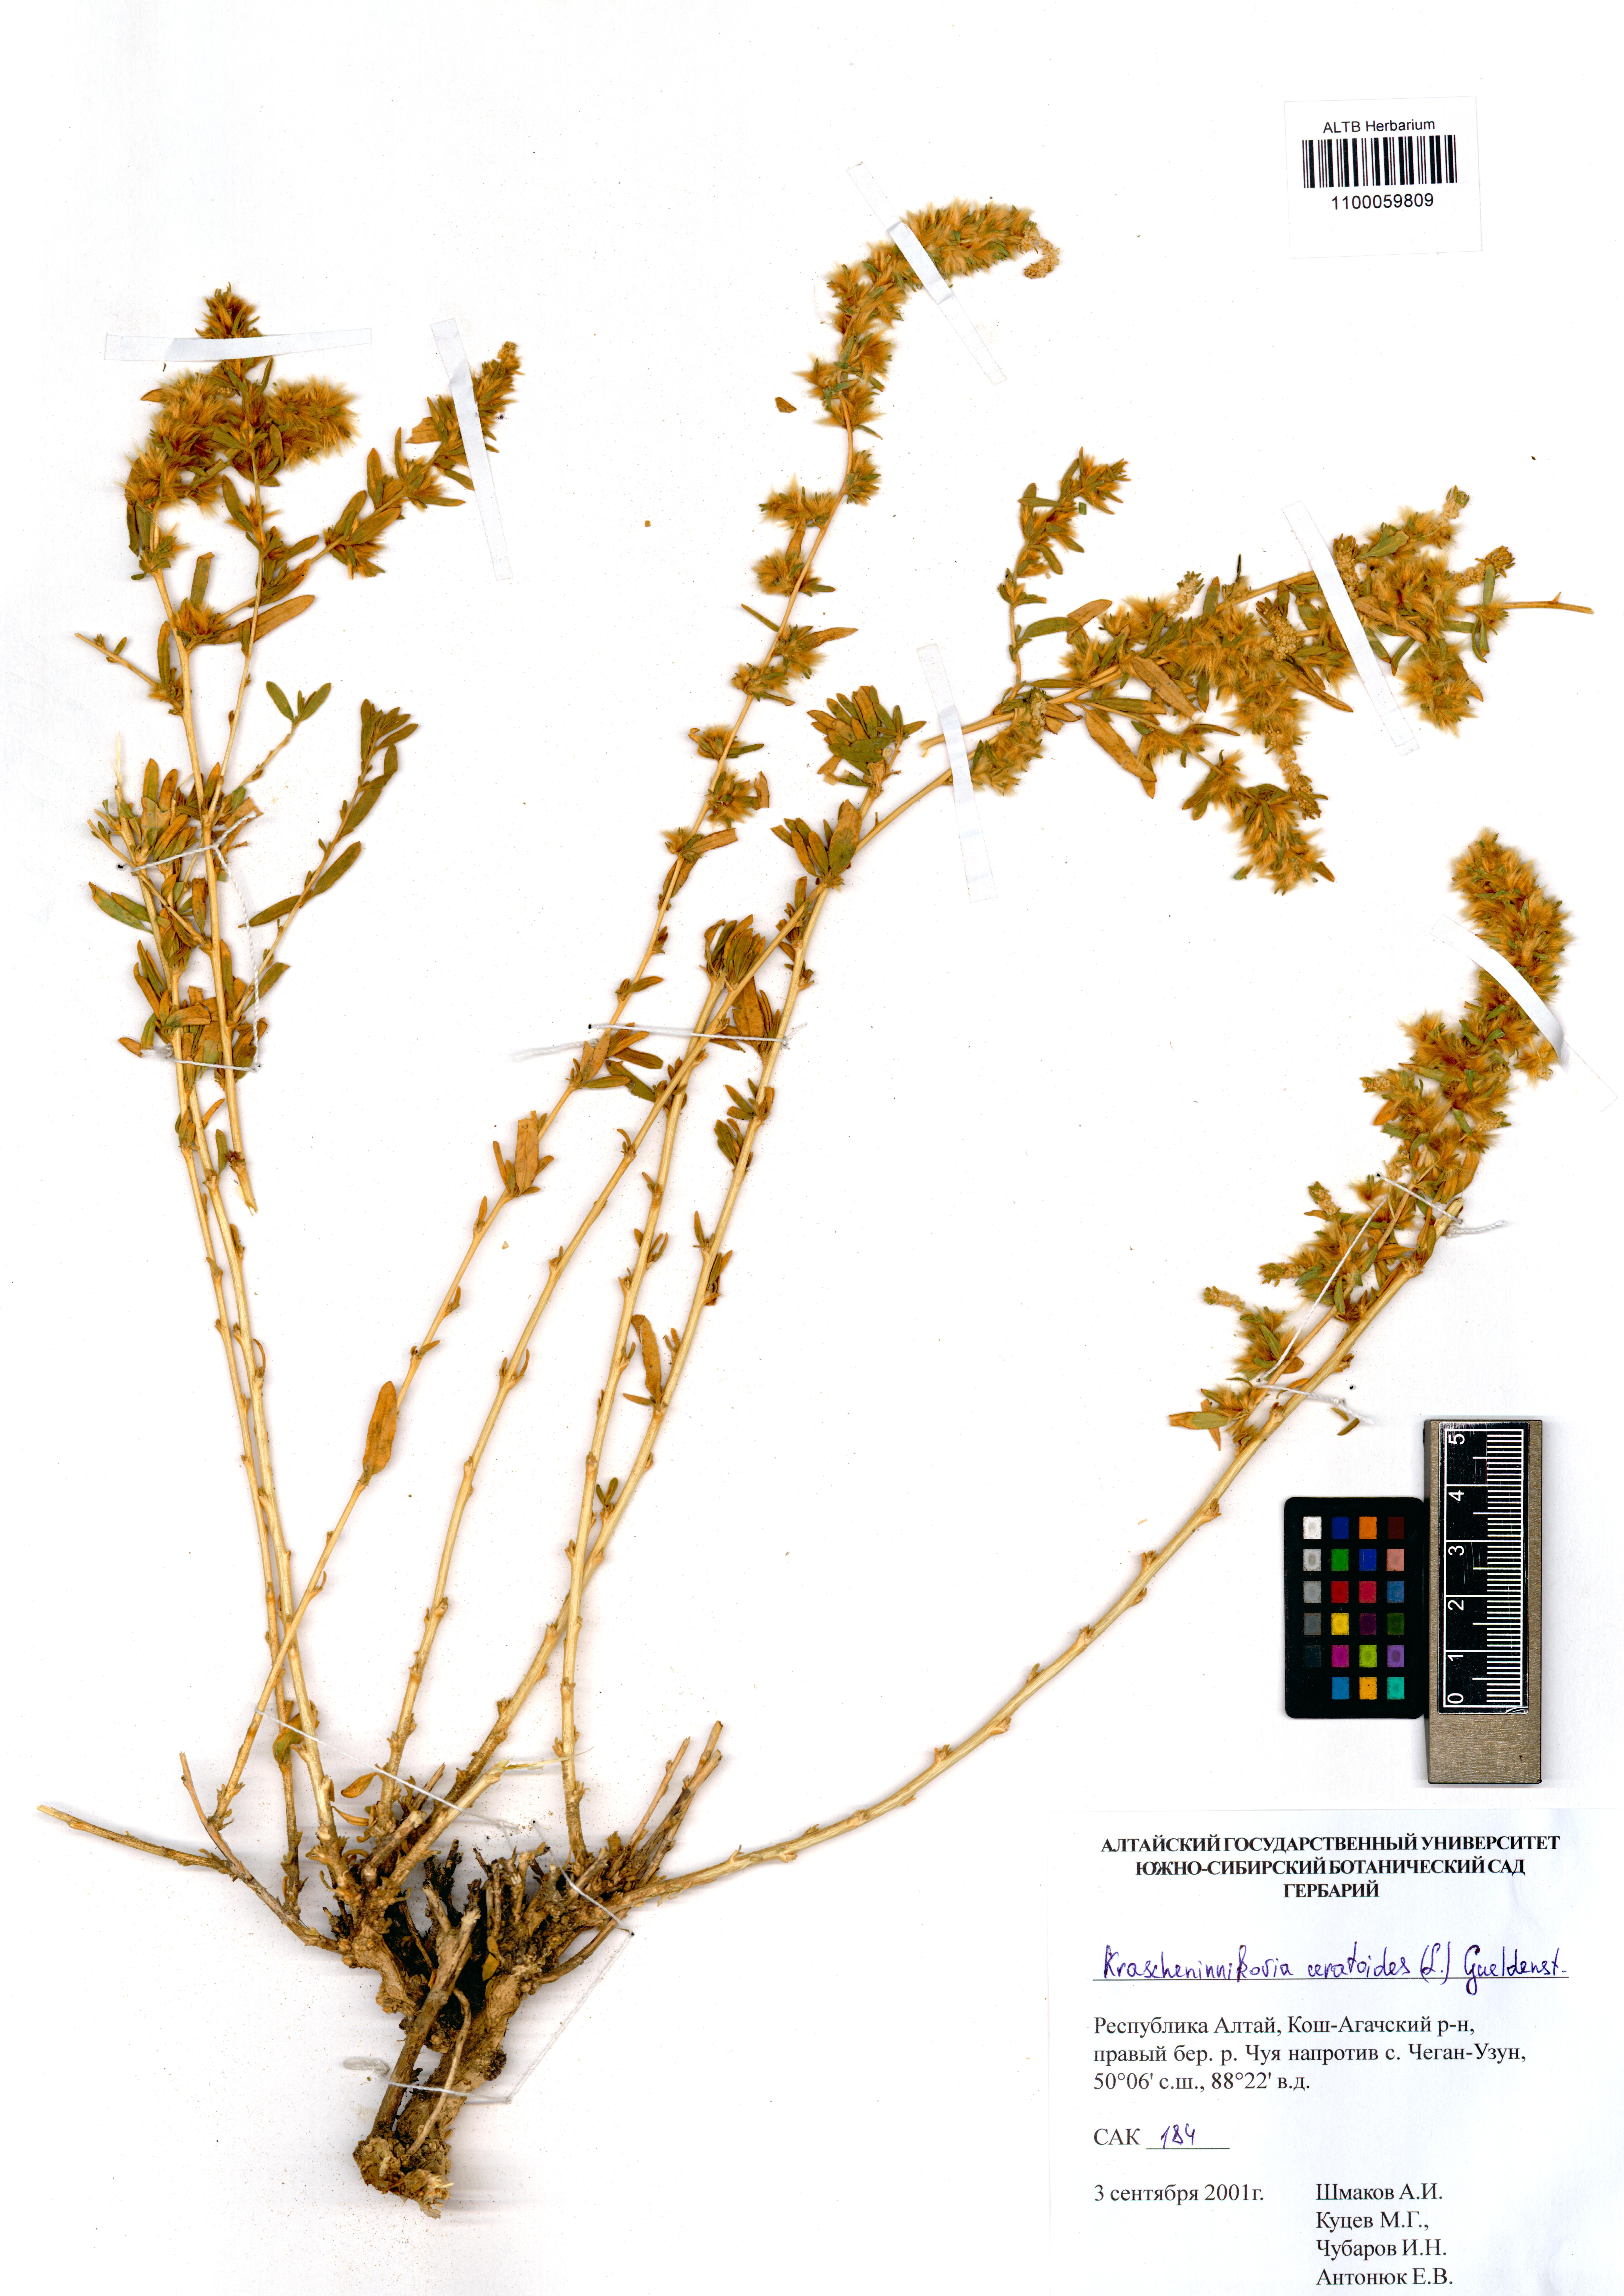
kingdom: Plantae
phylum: Tracheophyta
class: Magnoliopsida
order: Caryophyllales
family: Amaranthaceae
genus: Krascheninnikovia
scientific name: Krascheninnikovia ceratoides
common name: Pamirian winterfat
